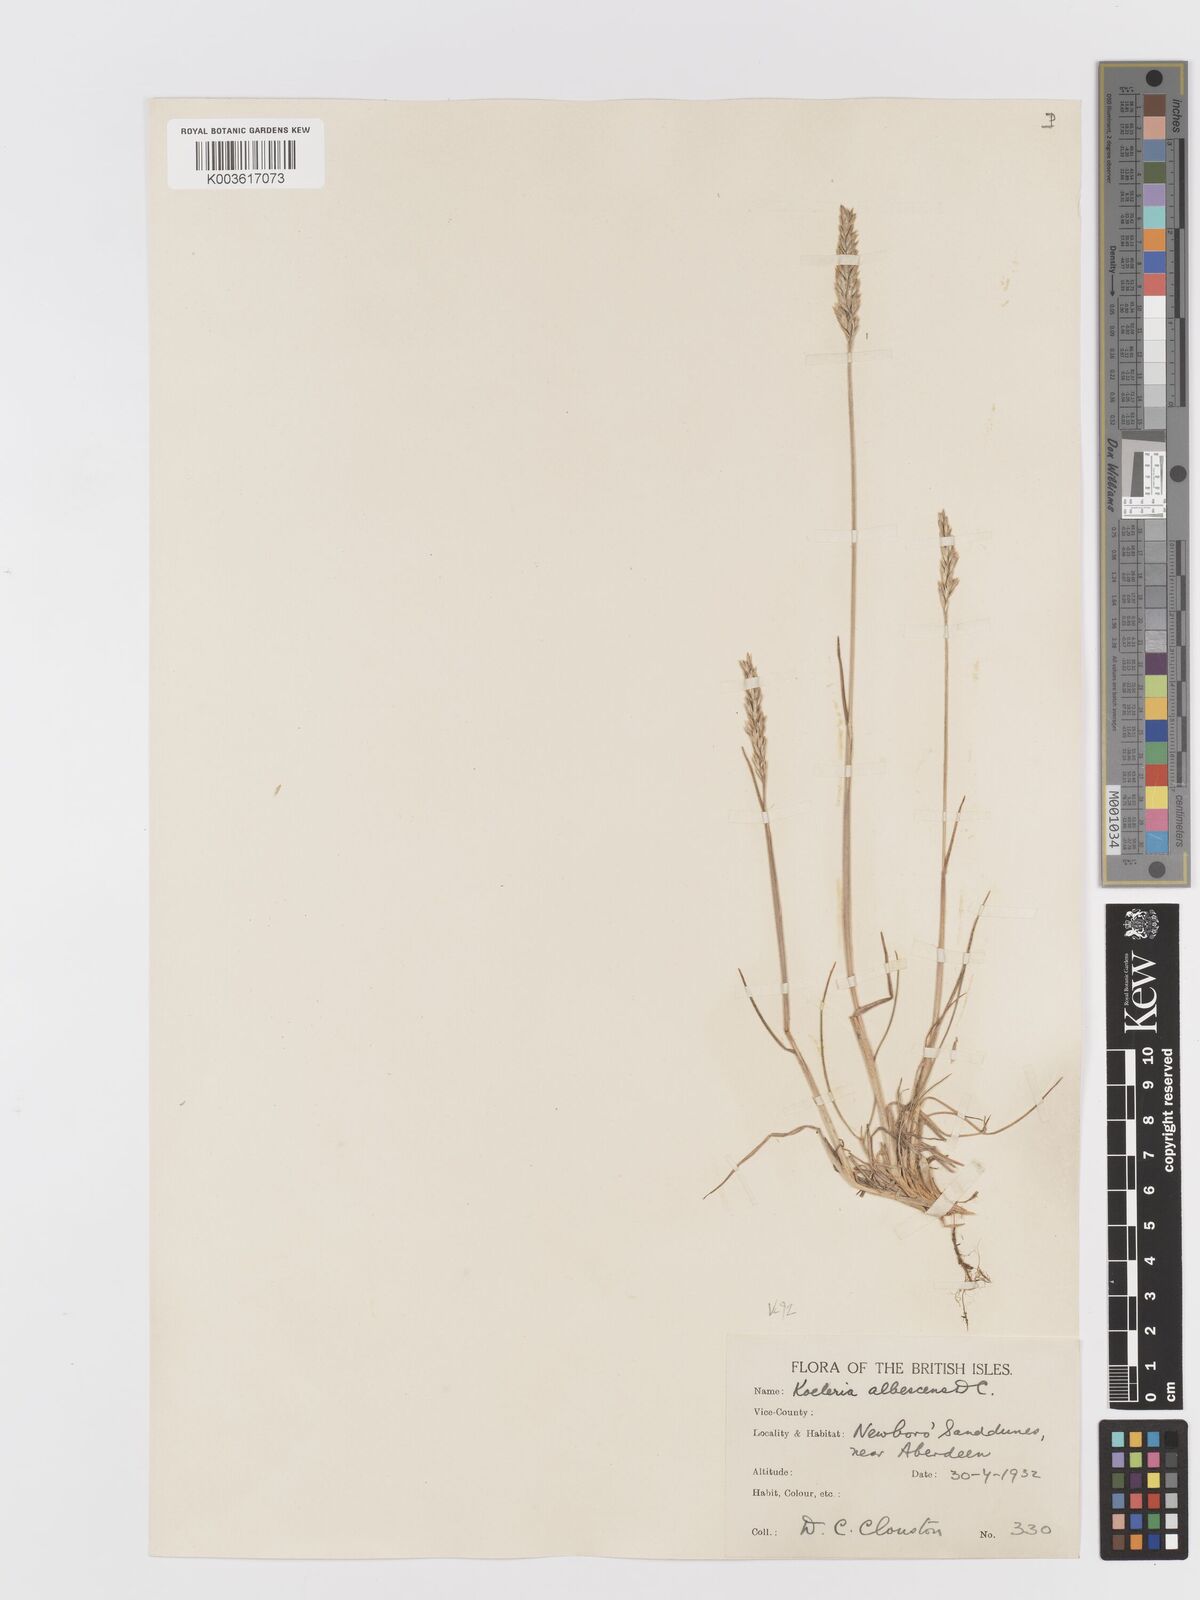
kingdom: Plantae
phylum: Tracheophyta
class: Liliopsida
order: Poales
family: Poaceae
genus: Koeleria
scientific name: Koeleria macrantha
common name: Crested hair-grass
